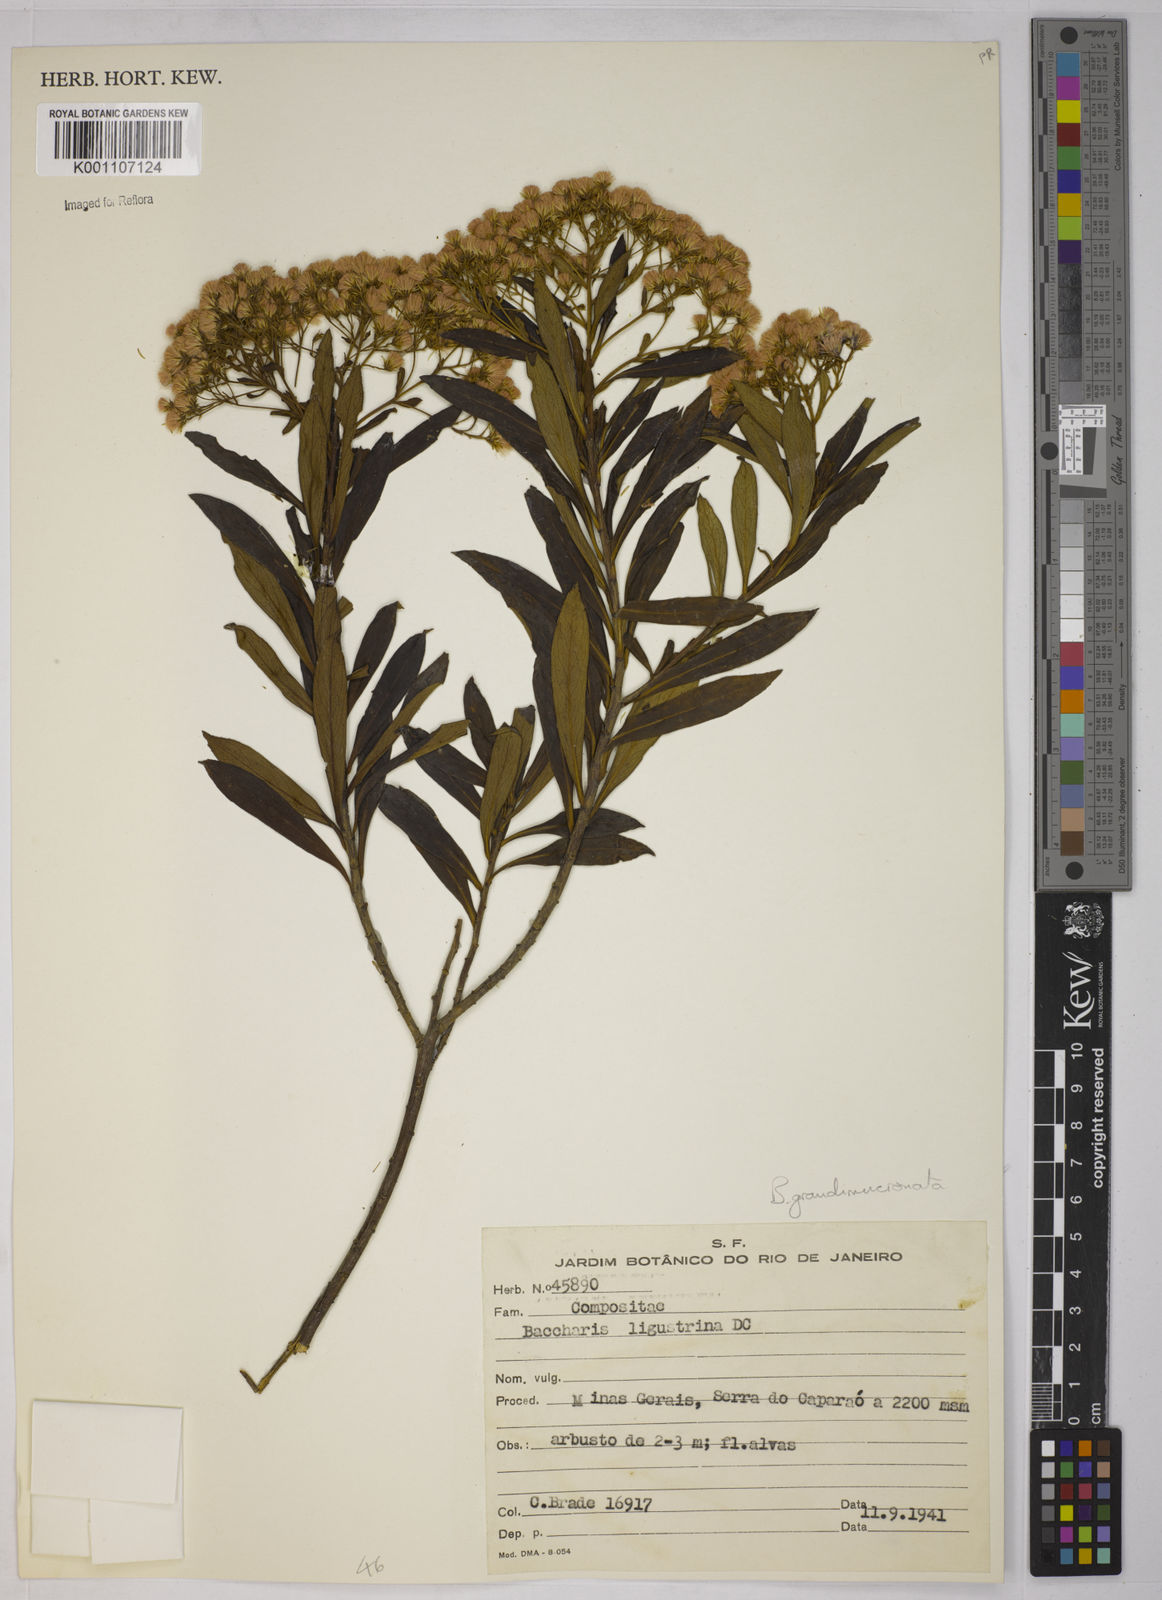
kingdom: Plantae
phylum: Tracheophyta
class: Magnoliopsida
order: Asterales
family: Asteraceae
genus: Baccharis
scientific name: Baccharis grandimucronata
